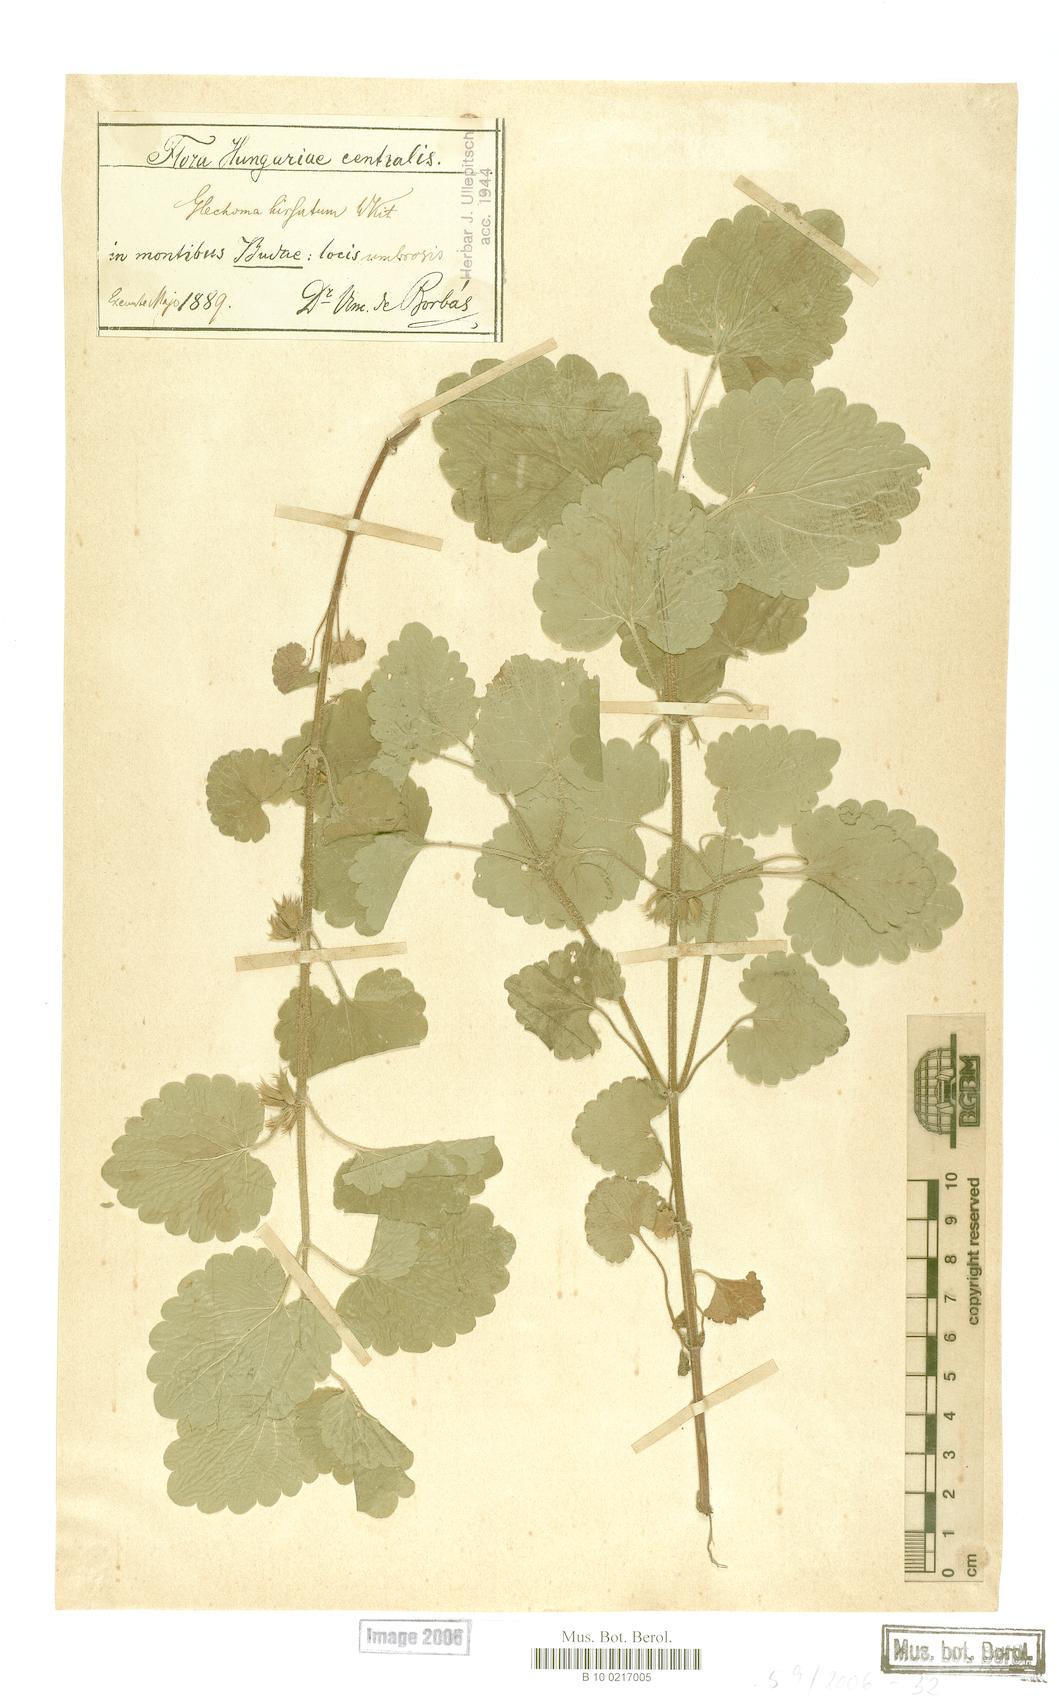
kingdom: Plantae
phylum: Tracheophyta
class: Magnoliopsida
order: Lamiales
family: Lamiaceae
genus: Glechoma
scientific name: Glechoma hirsuta
